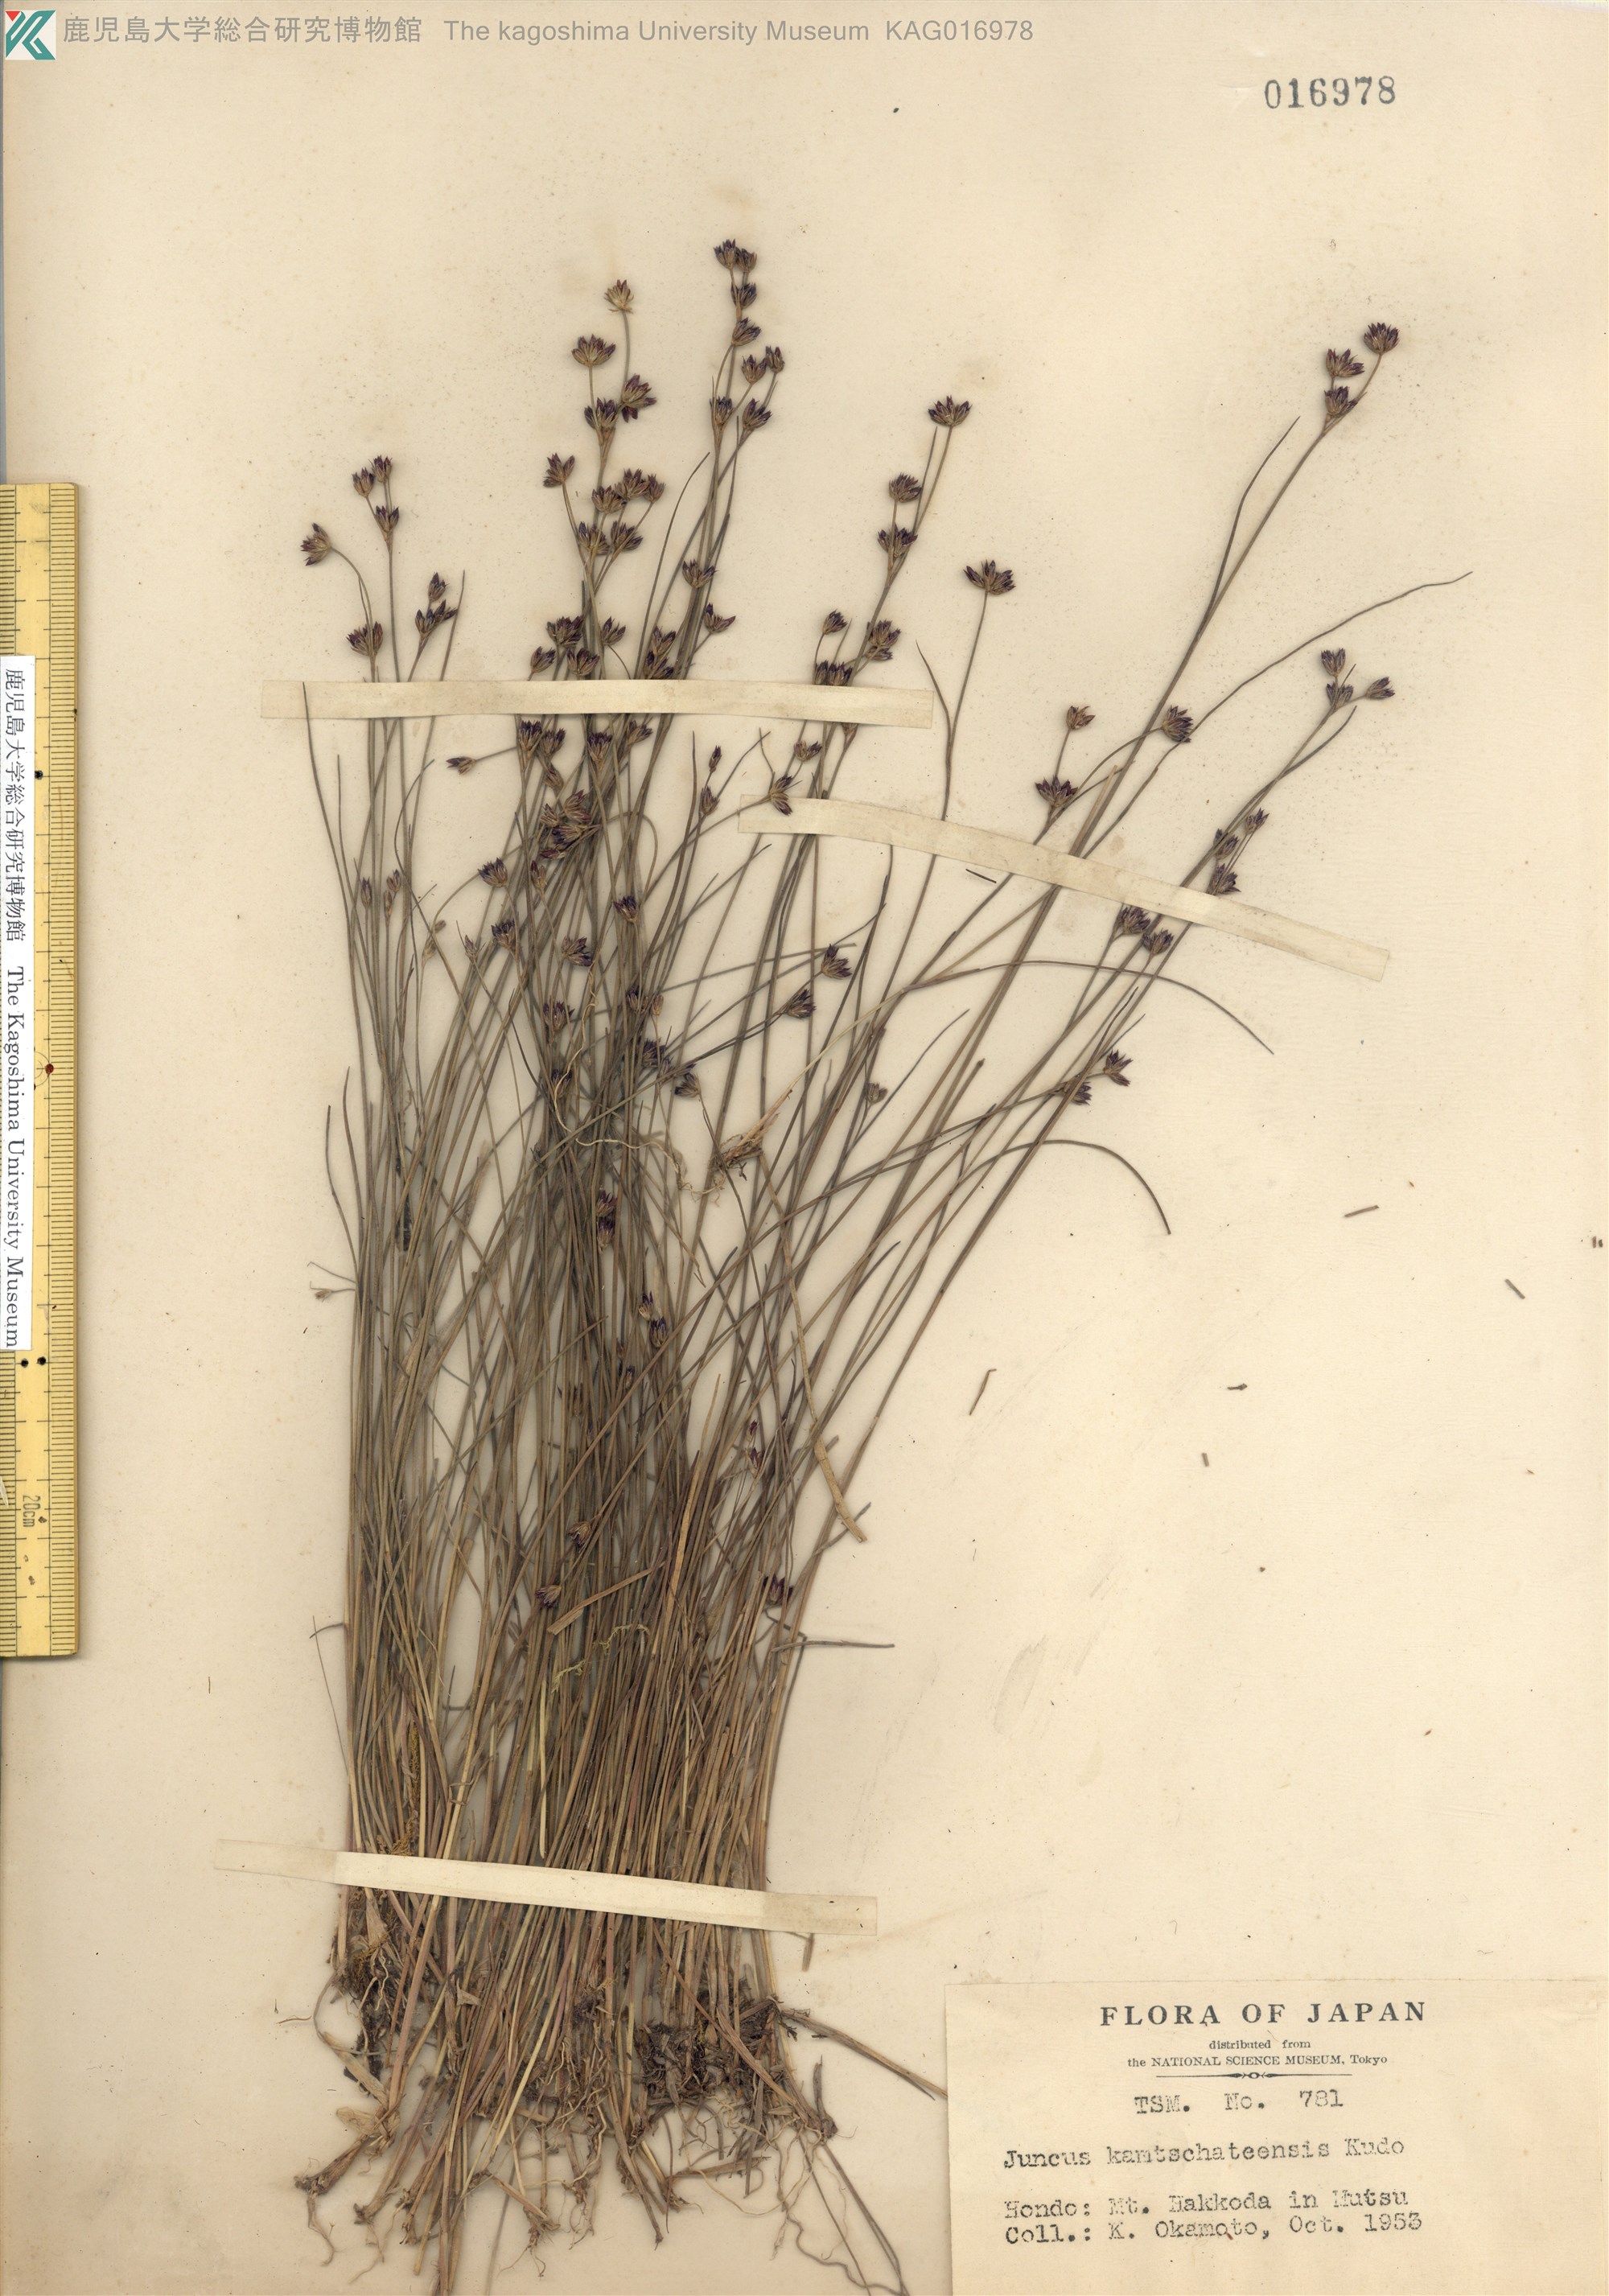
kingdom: Plantae
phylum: Tracheophyta
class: Liliopsida
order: Poales
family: Juncaceae
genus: Juncus
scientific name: Juncus fauriensis
